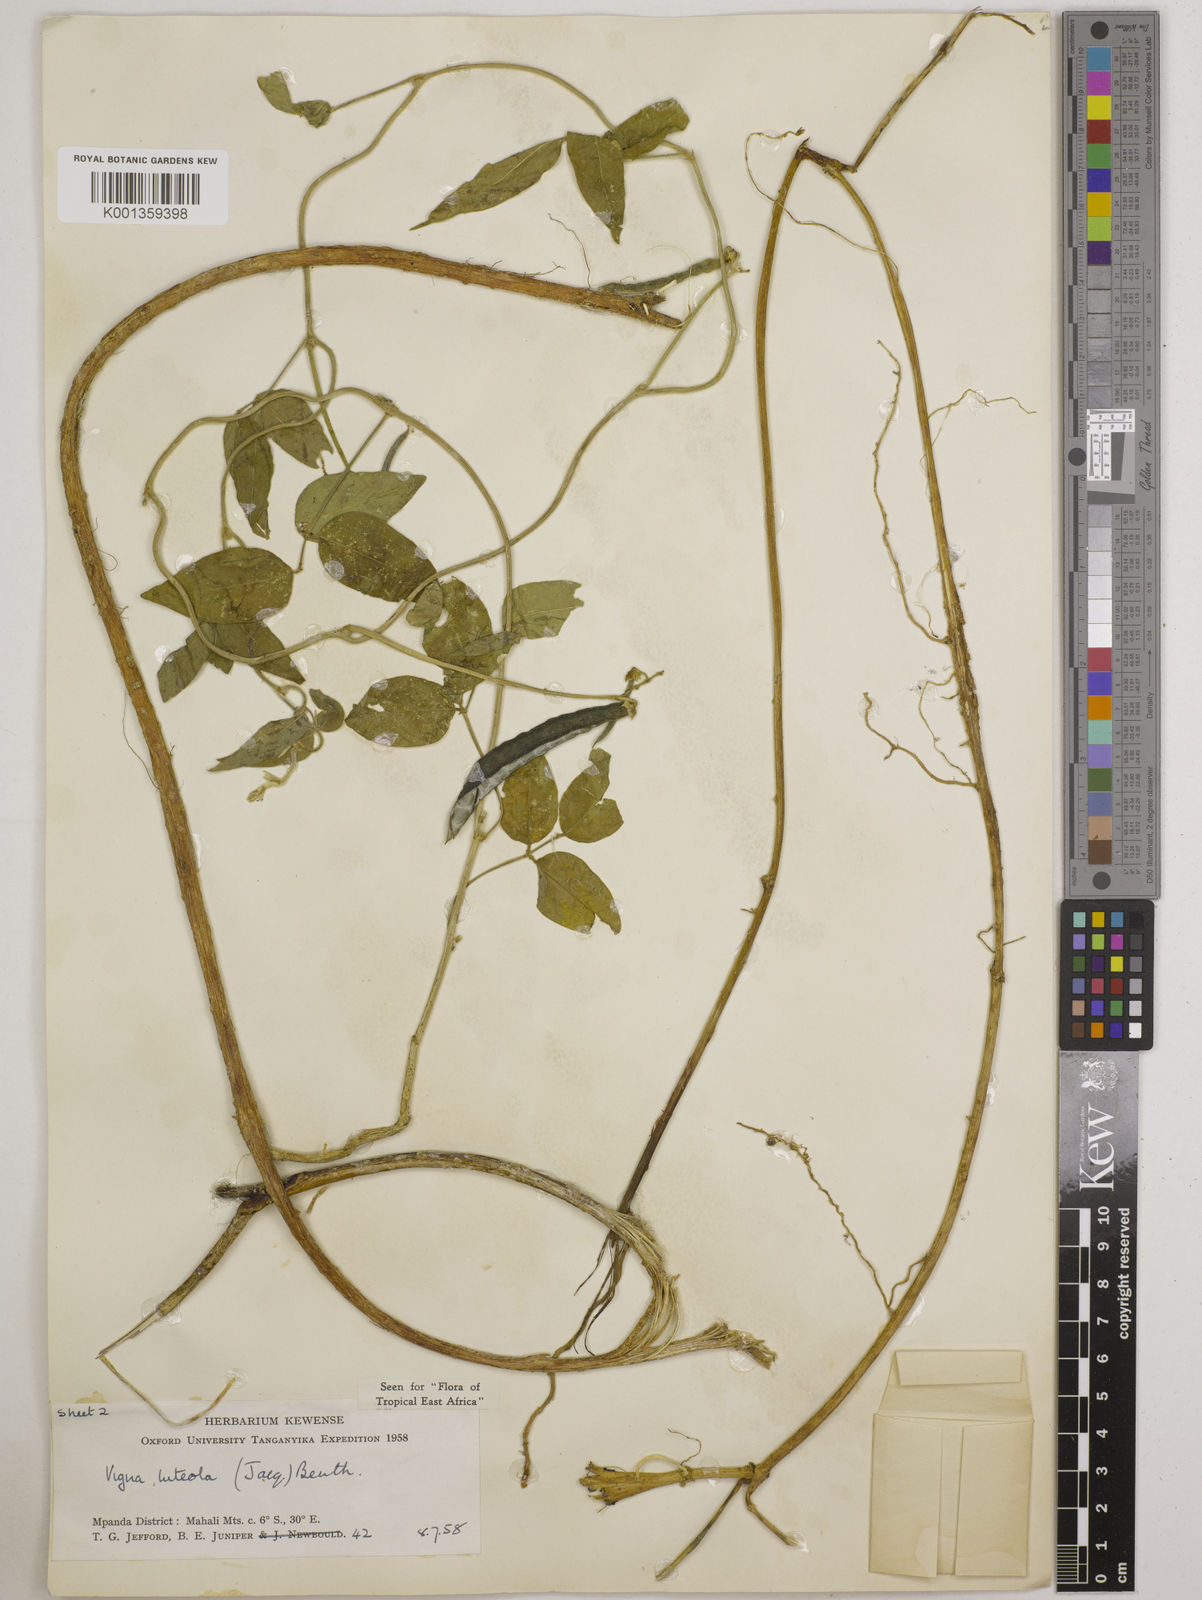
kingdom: Plantae
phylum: Tracheophyta
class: Magnoliopsida
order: Fabales
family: Fabaceae
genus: Vigna
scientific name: Vigna luteola
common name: Hairypod cowpea
